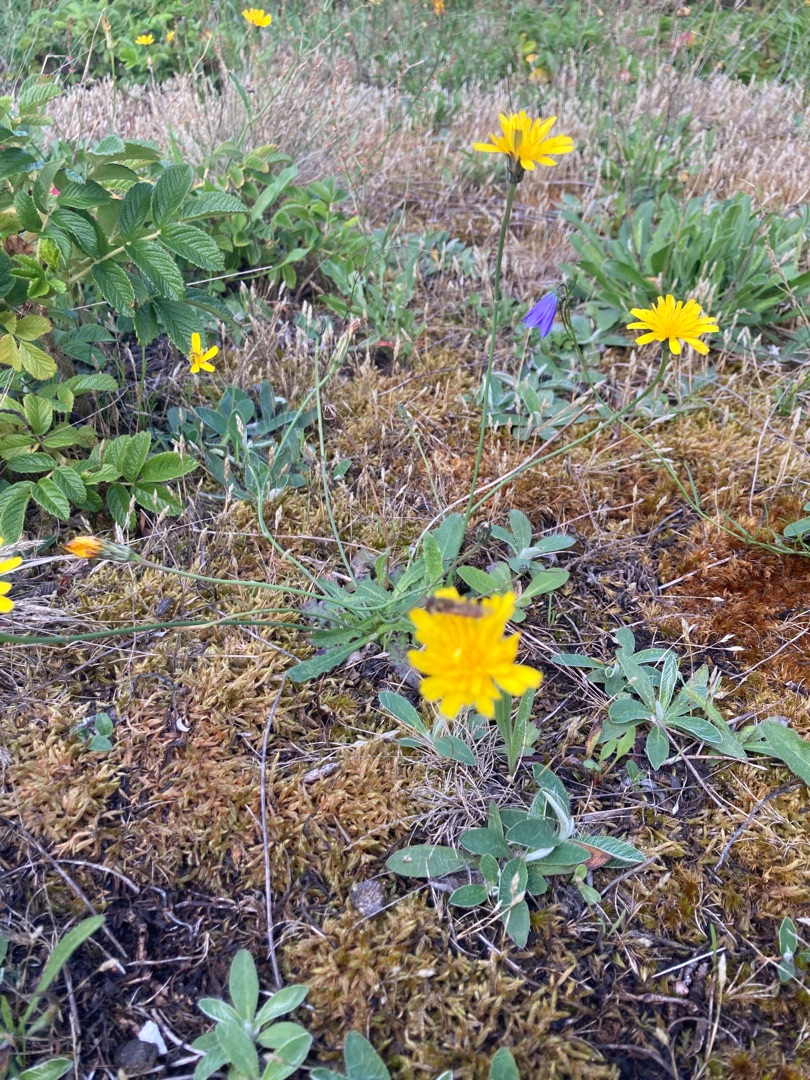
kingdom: Plantae
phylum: Tracheophyta
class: Magnoliopsida
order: Asterales
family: Asteraceae
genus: Hypochaeris
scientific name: Hypochaeris radicata
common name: Almindelig kongepen
